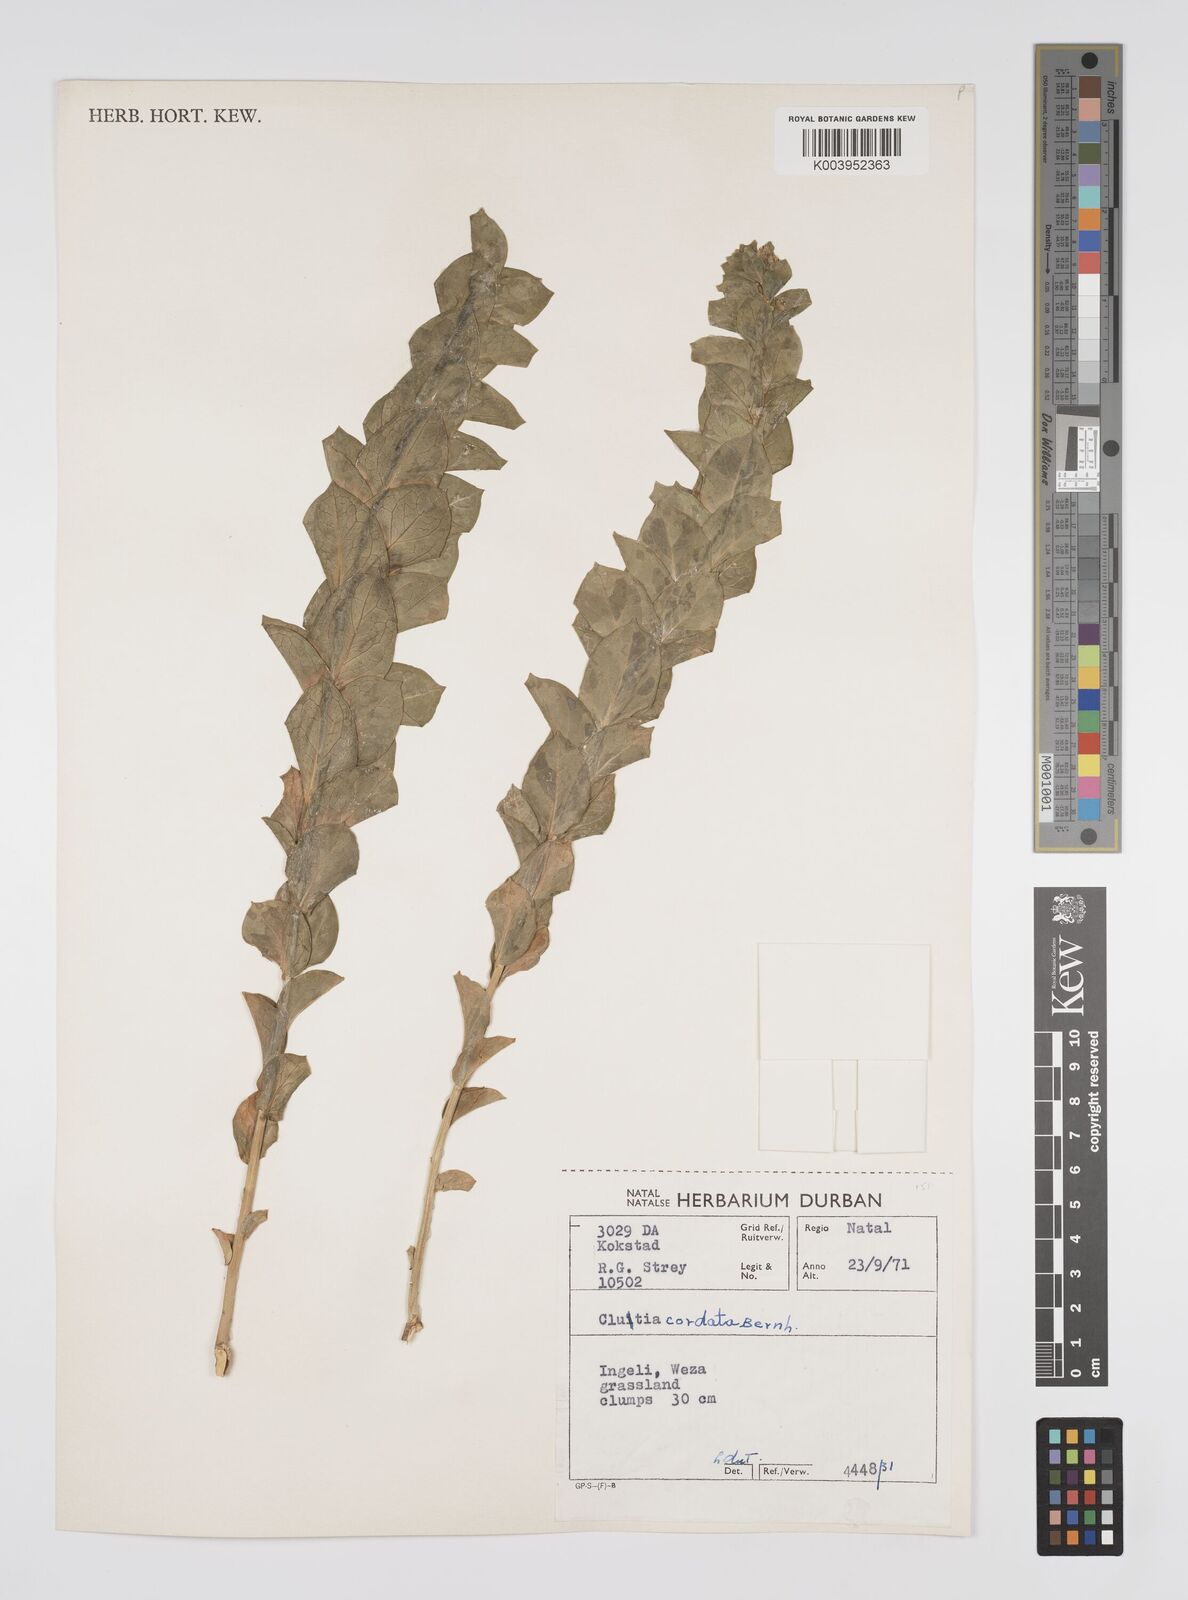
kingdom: Plantae
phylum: Tracheophyta
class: Magnoliopsida
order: Malpighiales
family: Peraceae
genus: Clutia
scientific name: Clutia cordata
